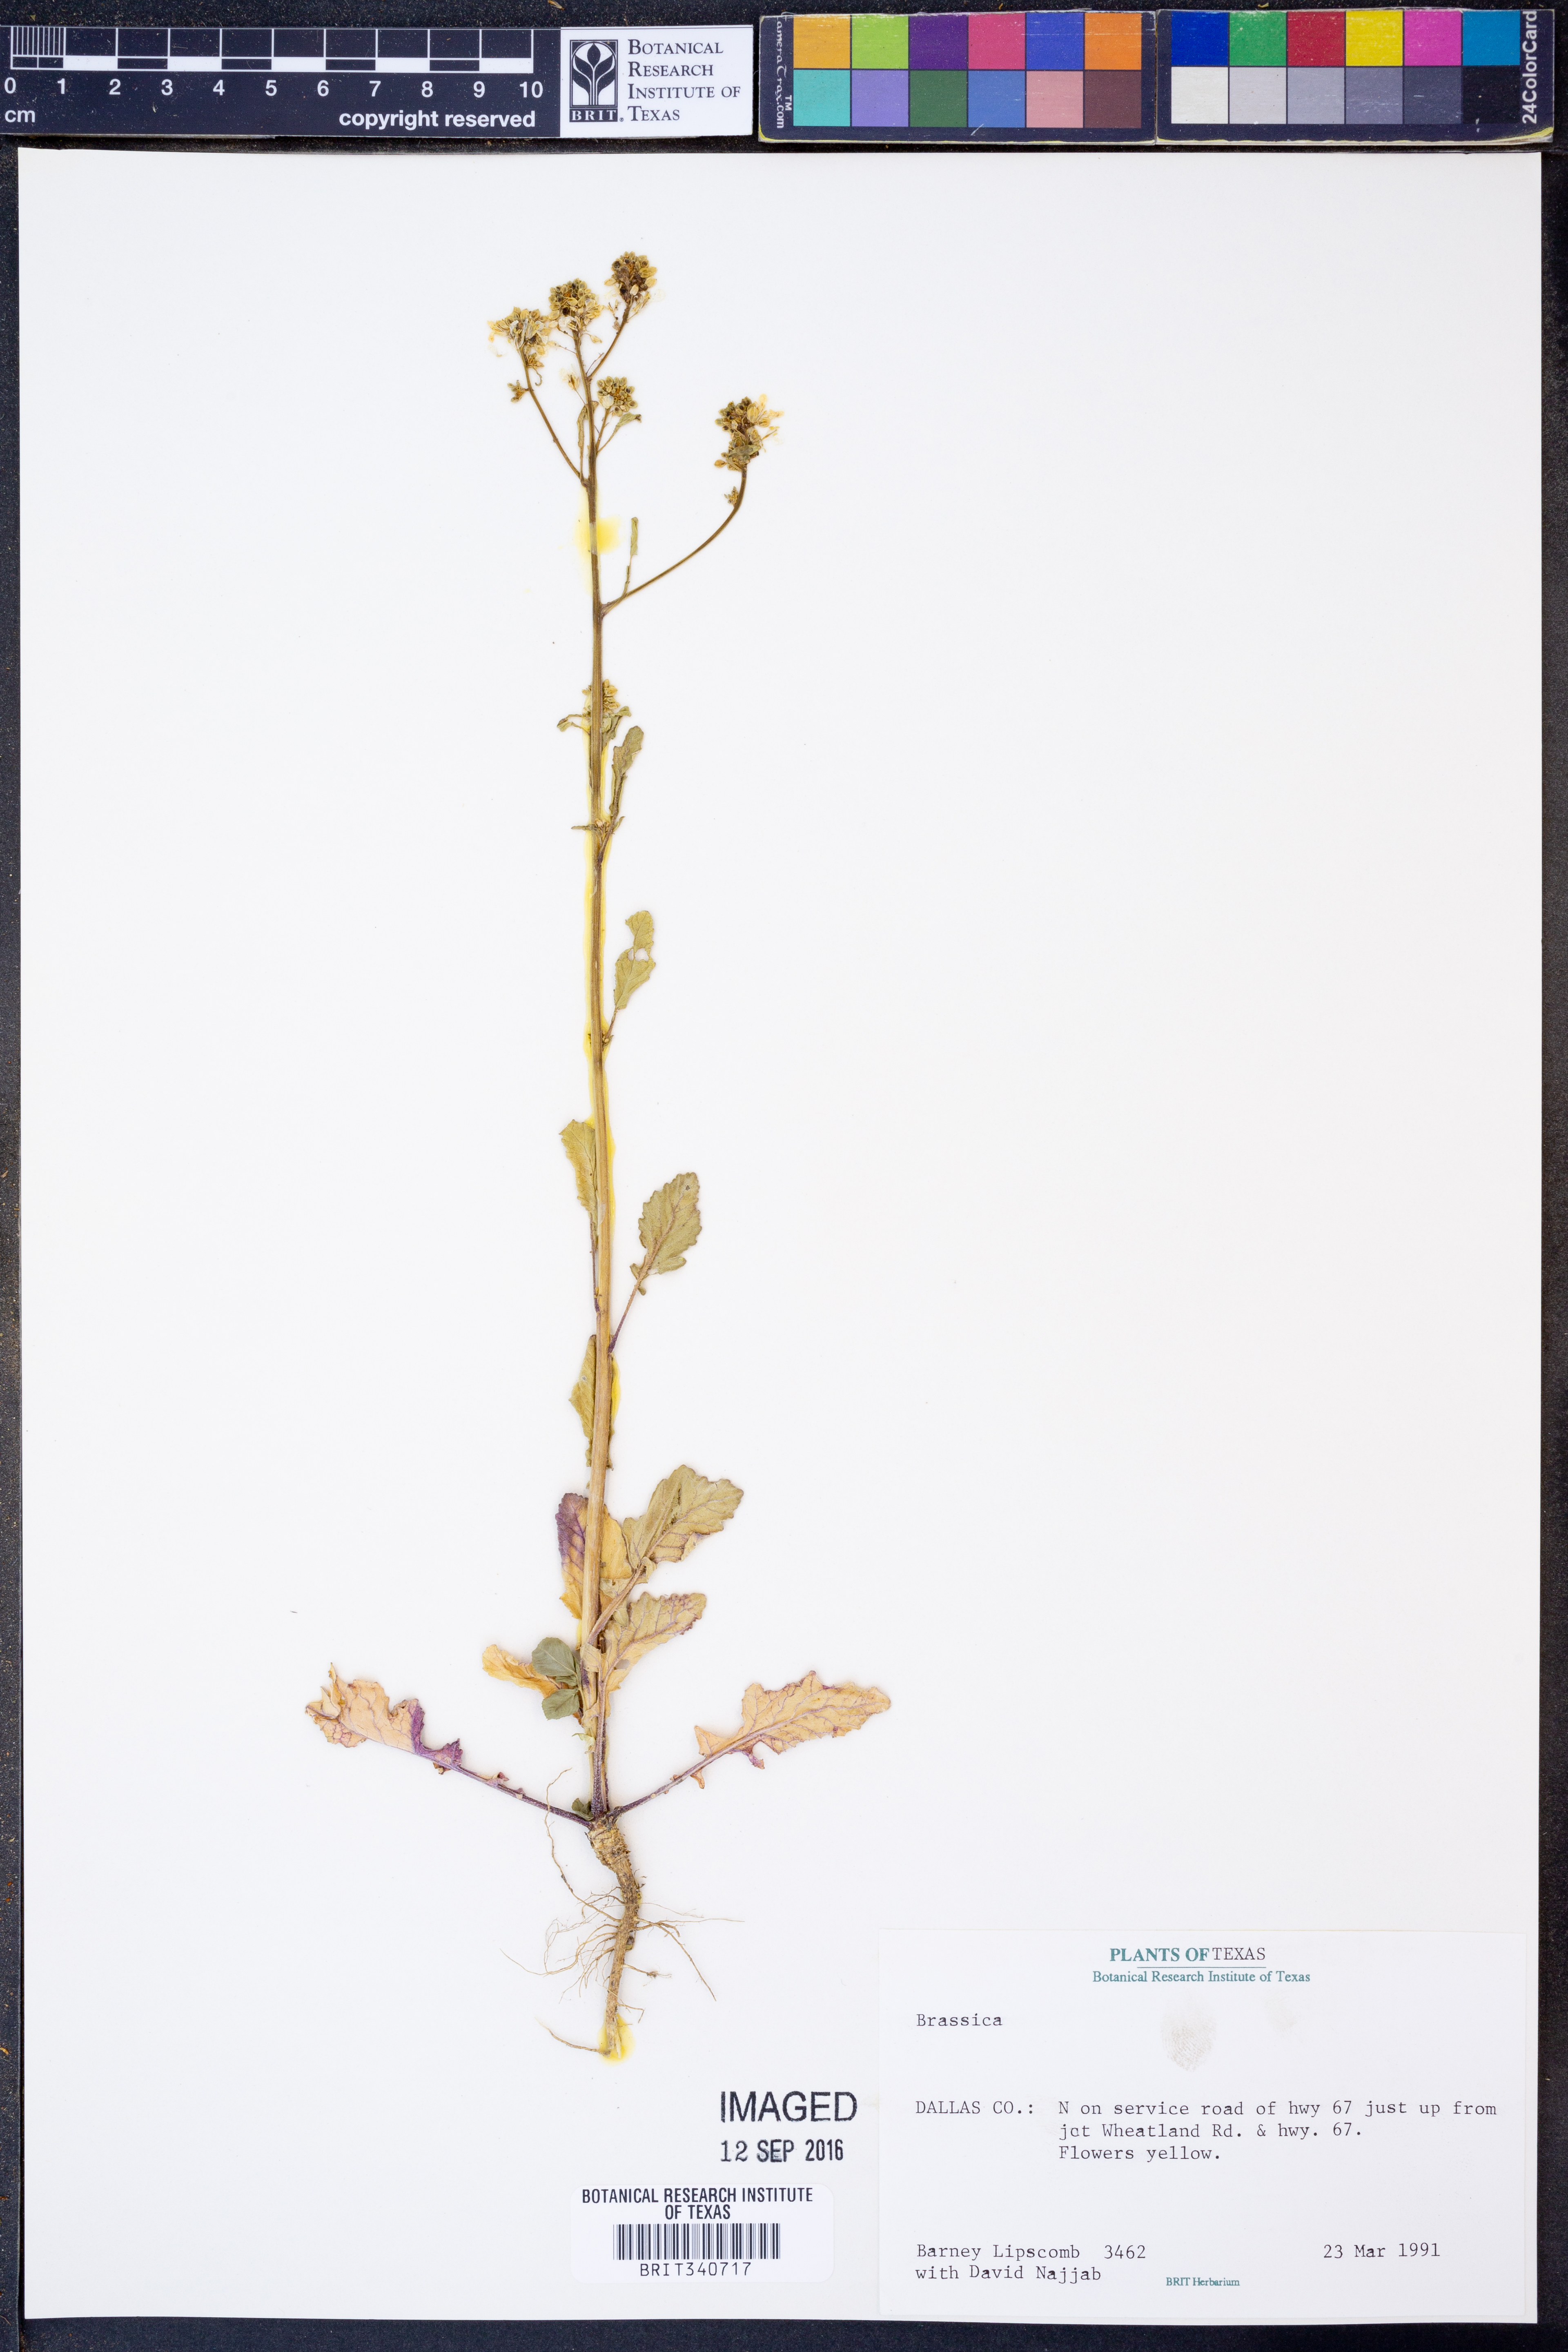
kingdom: Plantae
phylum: Tracheophyta
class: Magnoliopsida
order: Brassicales
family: Brassicaceae
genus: Brassica
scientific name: Brassica
